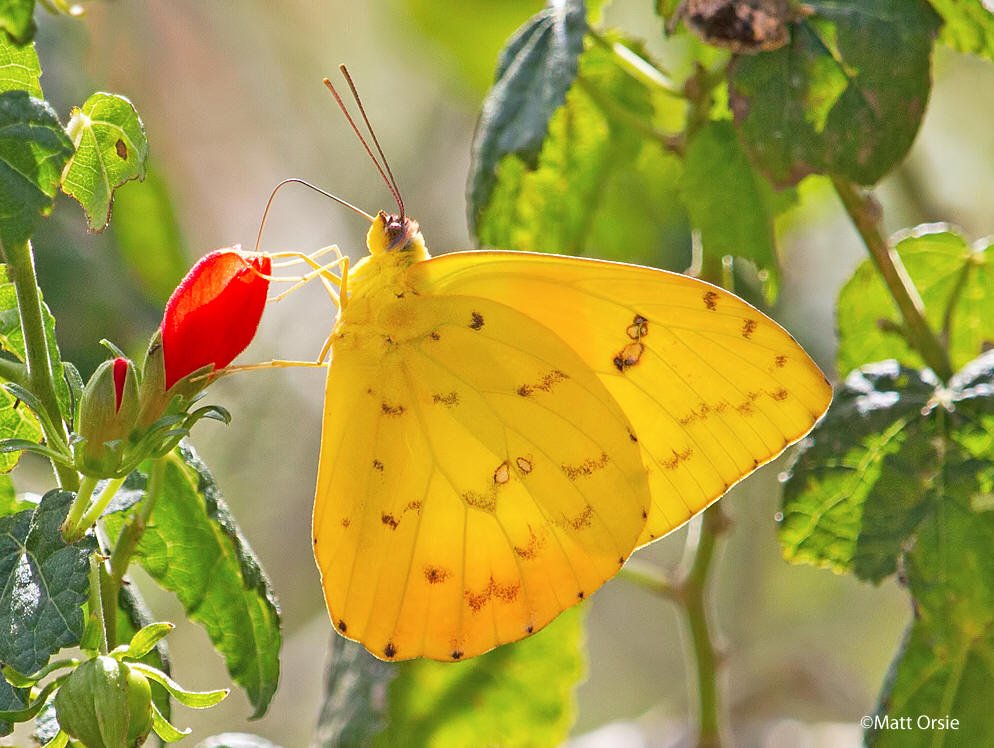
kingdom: Animalia
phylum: Arthropoda
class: Insecta
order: Lepidoptera
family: Pieridae
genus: Phoebis
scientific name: Phoebis philea
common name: Orange-barred Sulphur
